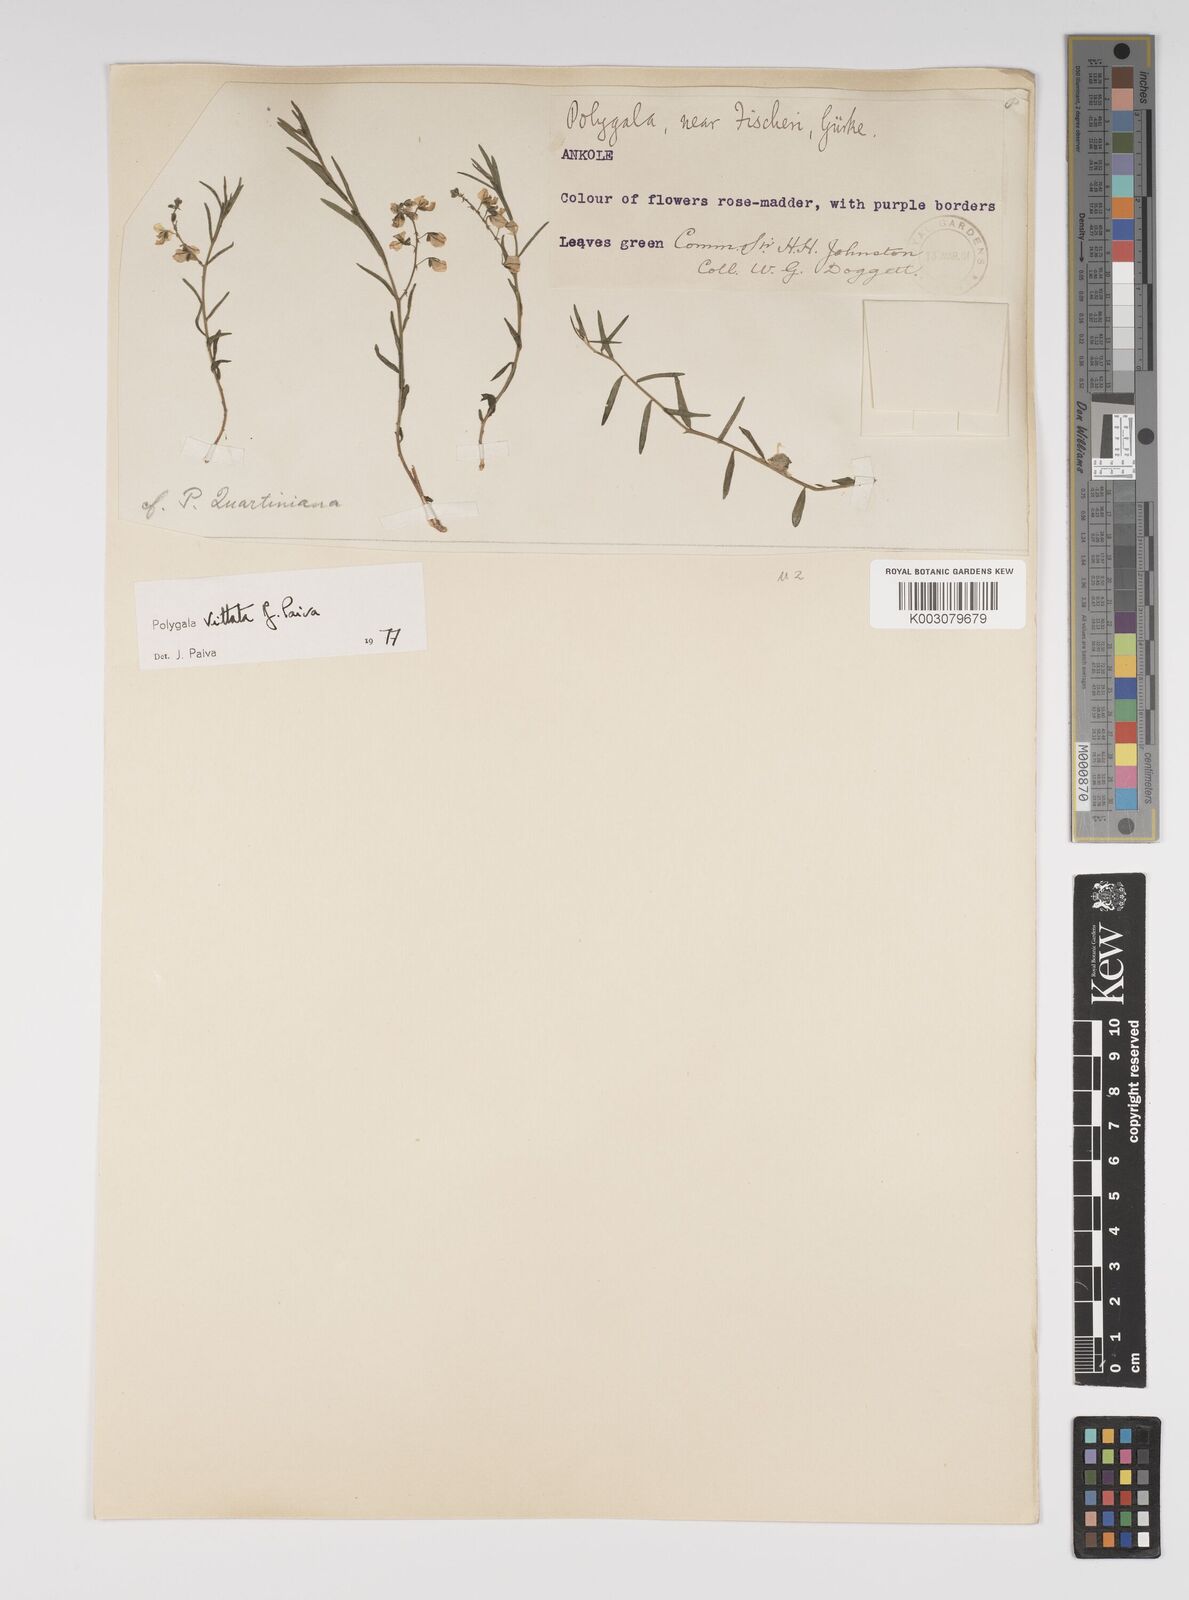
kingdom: Plantae
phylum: Tracheophyta
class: Magnoliopsida
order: Fabales
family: Polygalaceae
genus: Polygala
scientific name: Polygala vittata
